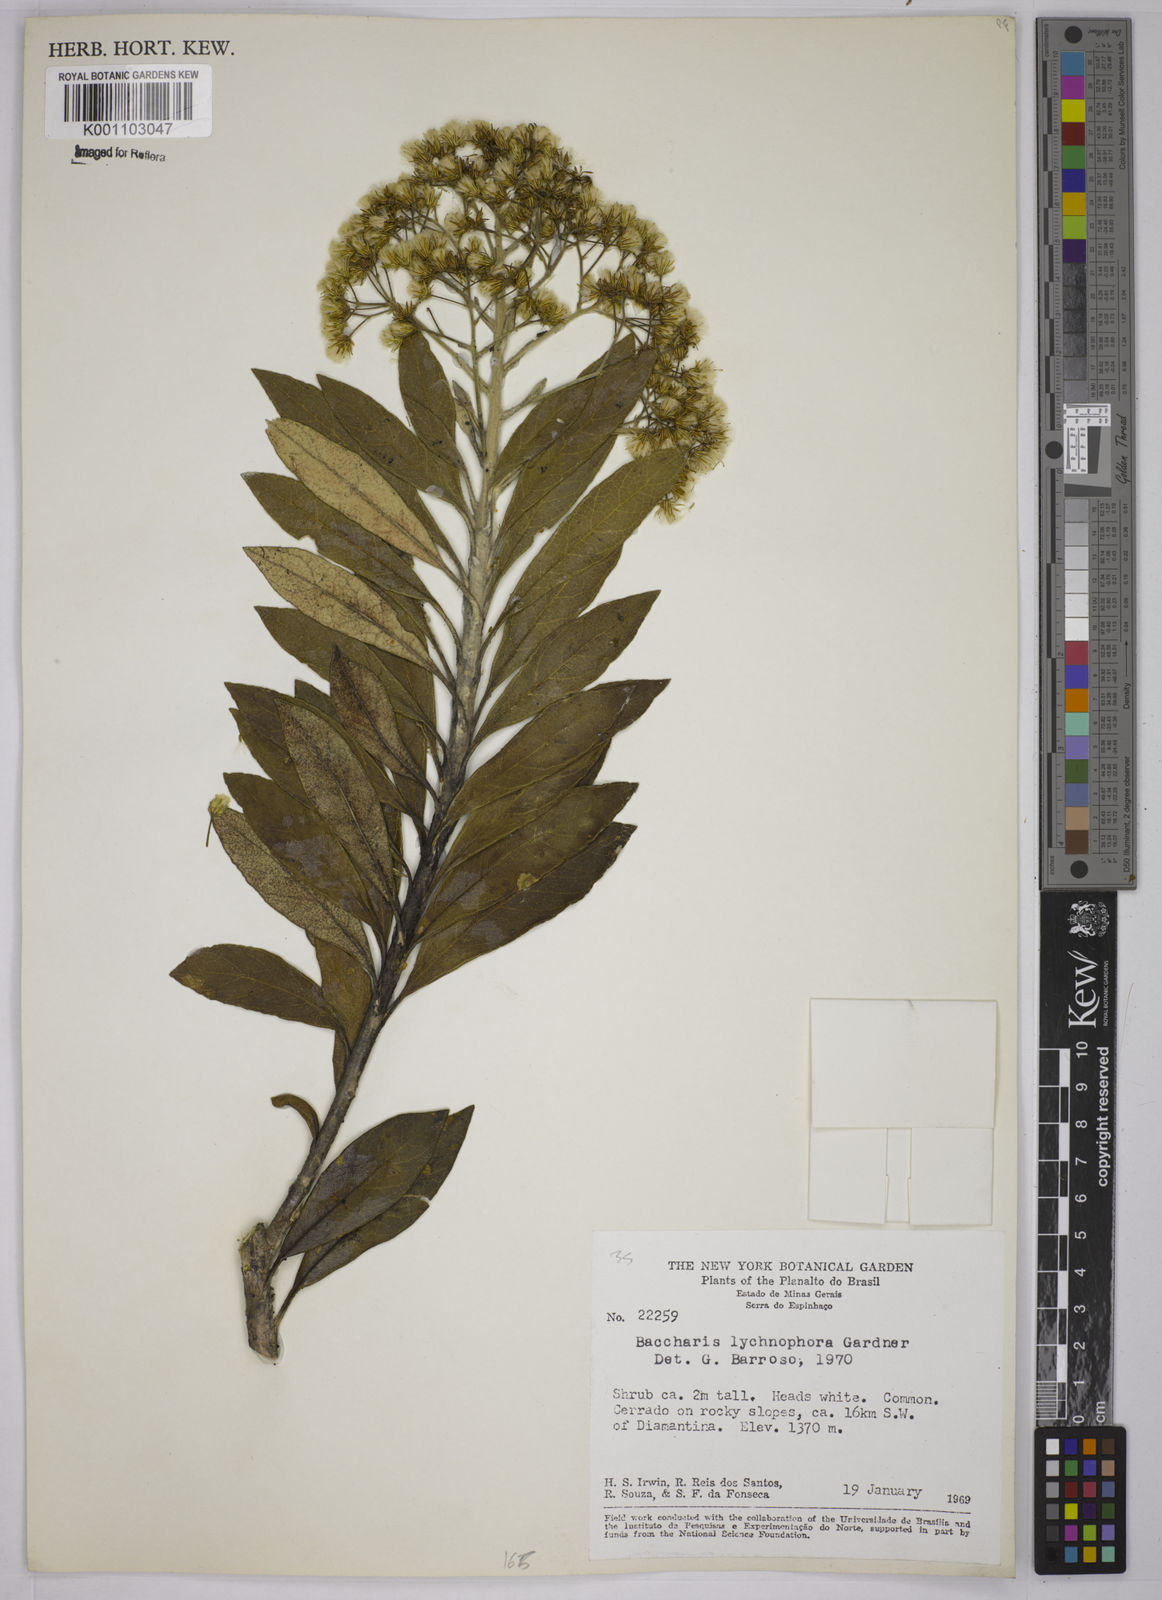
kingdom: Plantae
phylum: Tracheophyta
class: Magnoliopsida
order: Asterales
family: Asteraceae
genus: Baccharis
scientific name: Baccharis lychnophora
